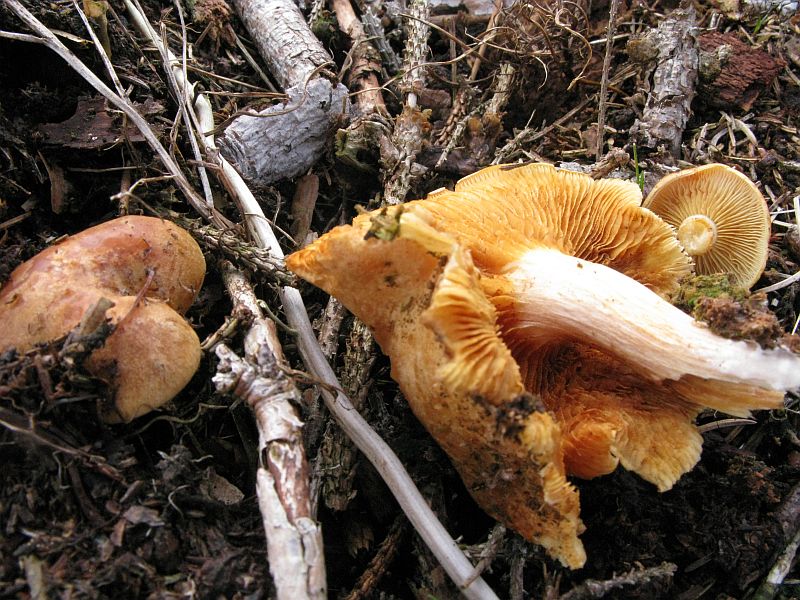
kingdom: Fungi
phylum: Basidiomycota
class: Agaricomycetes
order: Agaricales
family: Hymenogastraceae
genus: Gymnopilus
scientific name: Gymnopilus penetrans
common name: plettet flammehat
